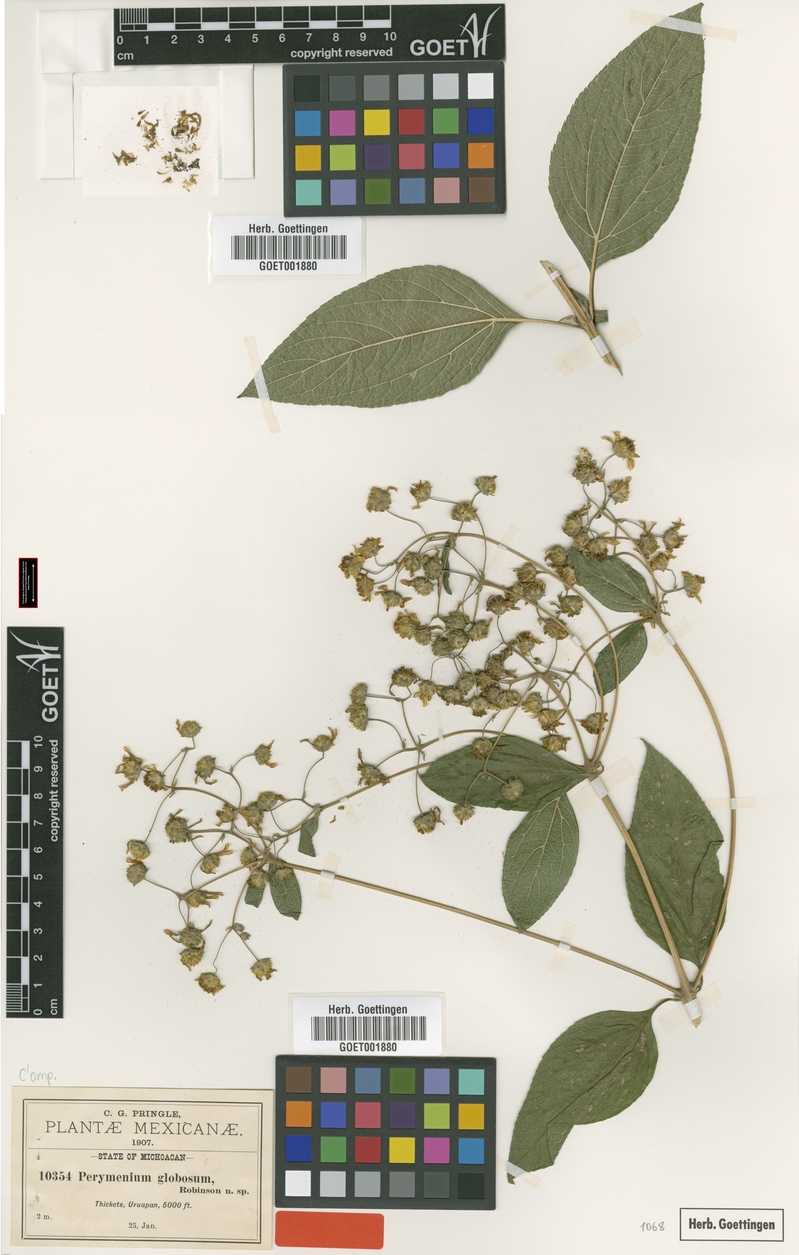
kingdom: Plantae
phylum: Tracheophyta
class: Magnoliopsida
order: Asterales
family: Asteraceae
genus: Perymenium
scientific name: Perymenium globosum
